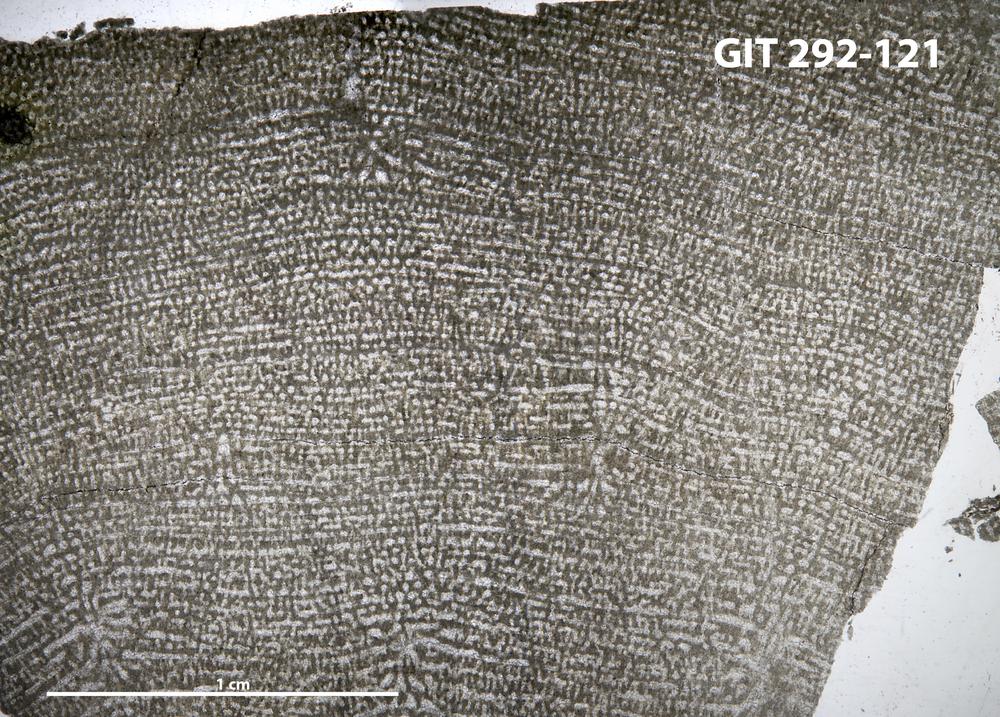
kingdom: Animalia
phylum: Porifera
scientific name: Porifera
